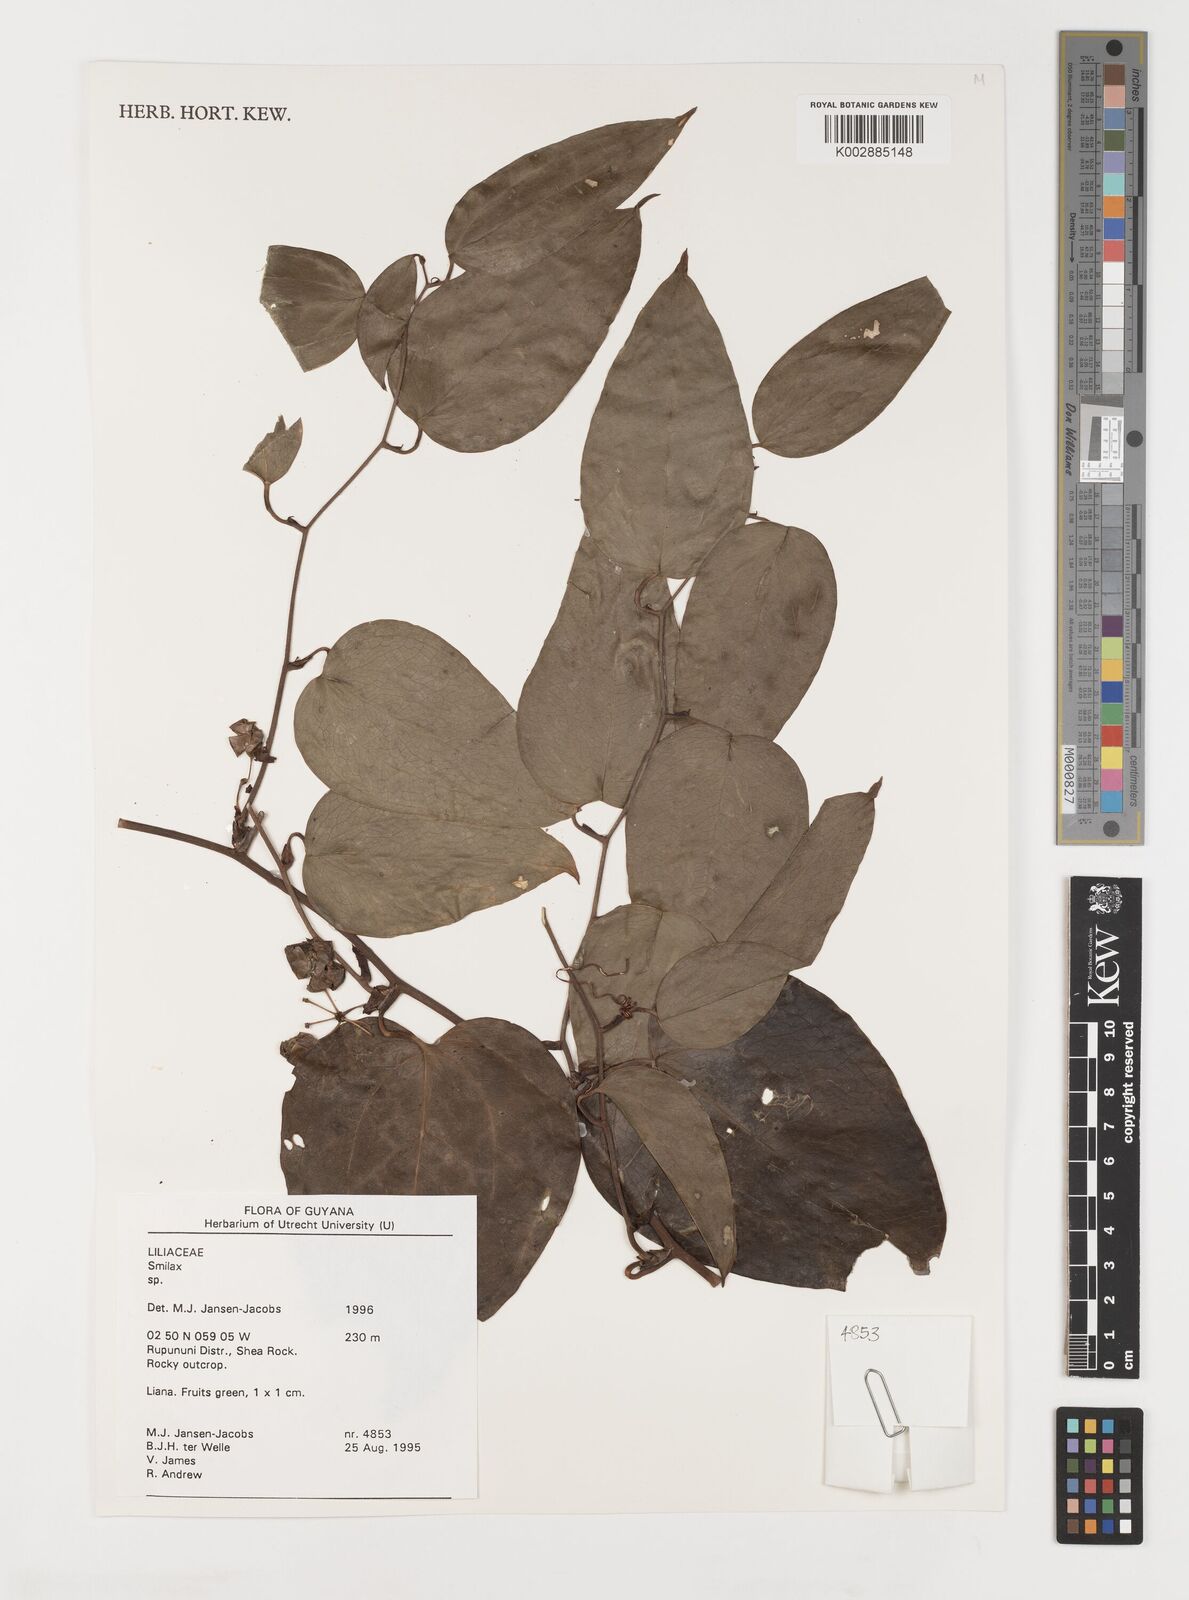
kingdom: Plantae
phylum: Tracheophyta
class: Liliopsida
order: Liliales
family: Smilacaceae
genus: Smilax
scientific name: Smilax
